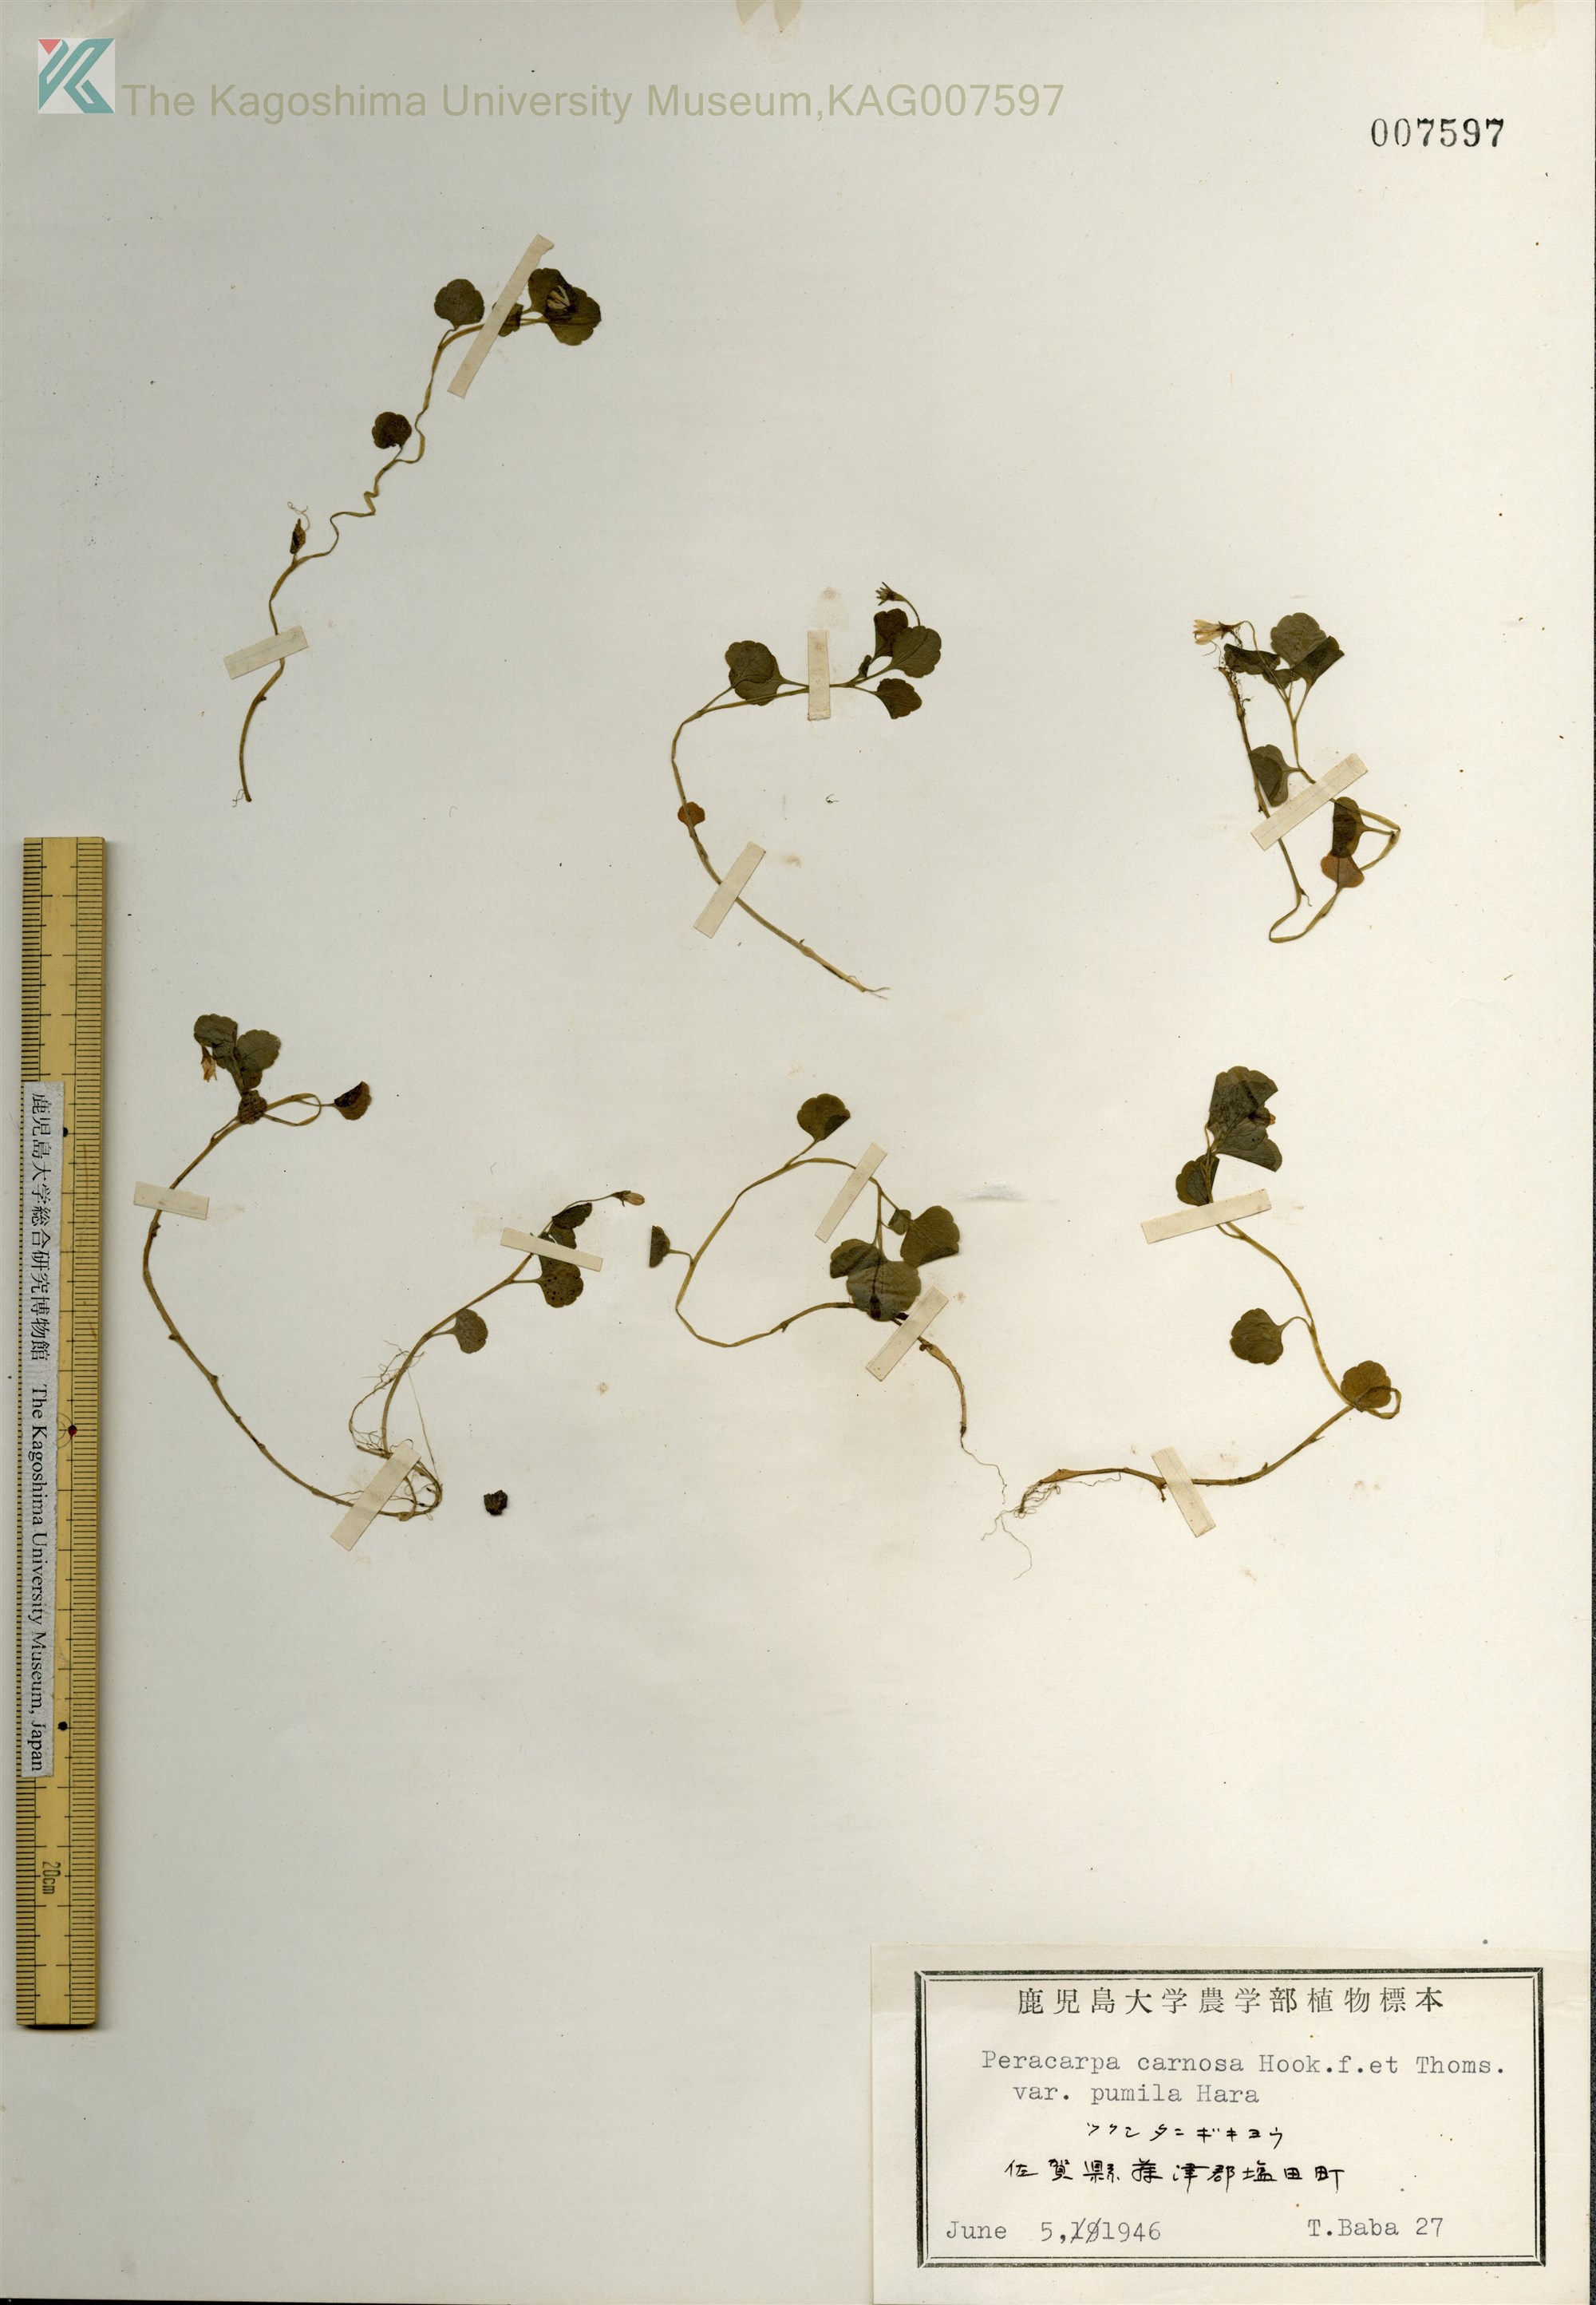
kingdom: Plantae
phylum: Tracheophyta
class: Magnoliopsida
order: Asterales
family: Campanulaceae
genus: Peracarpa
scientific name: Peracarpa carnosa
